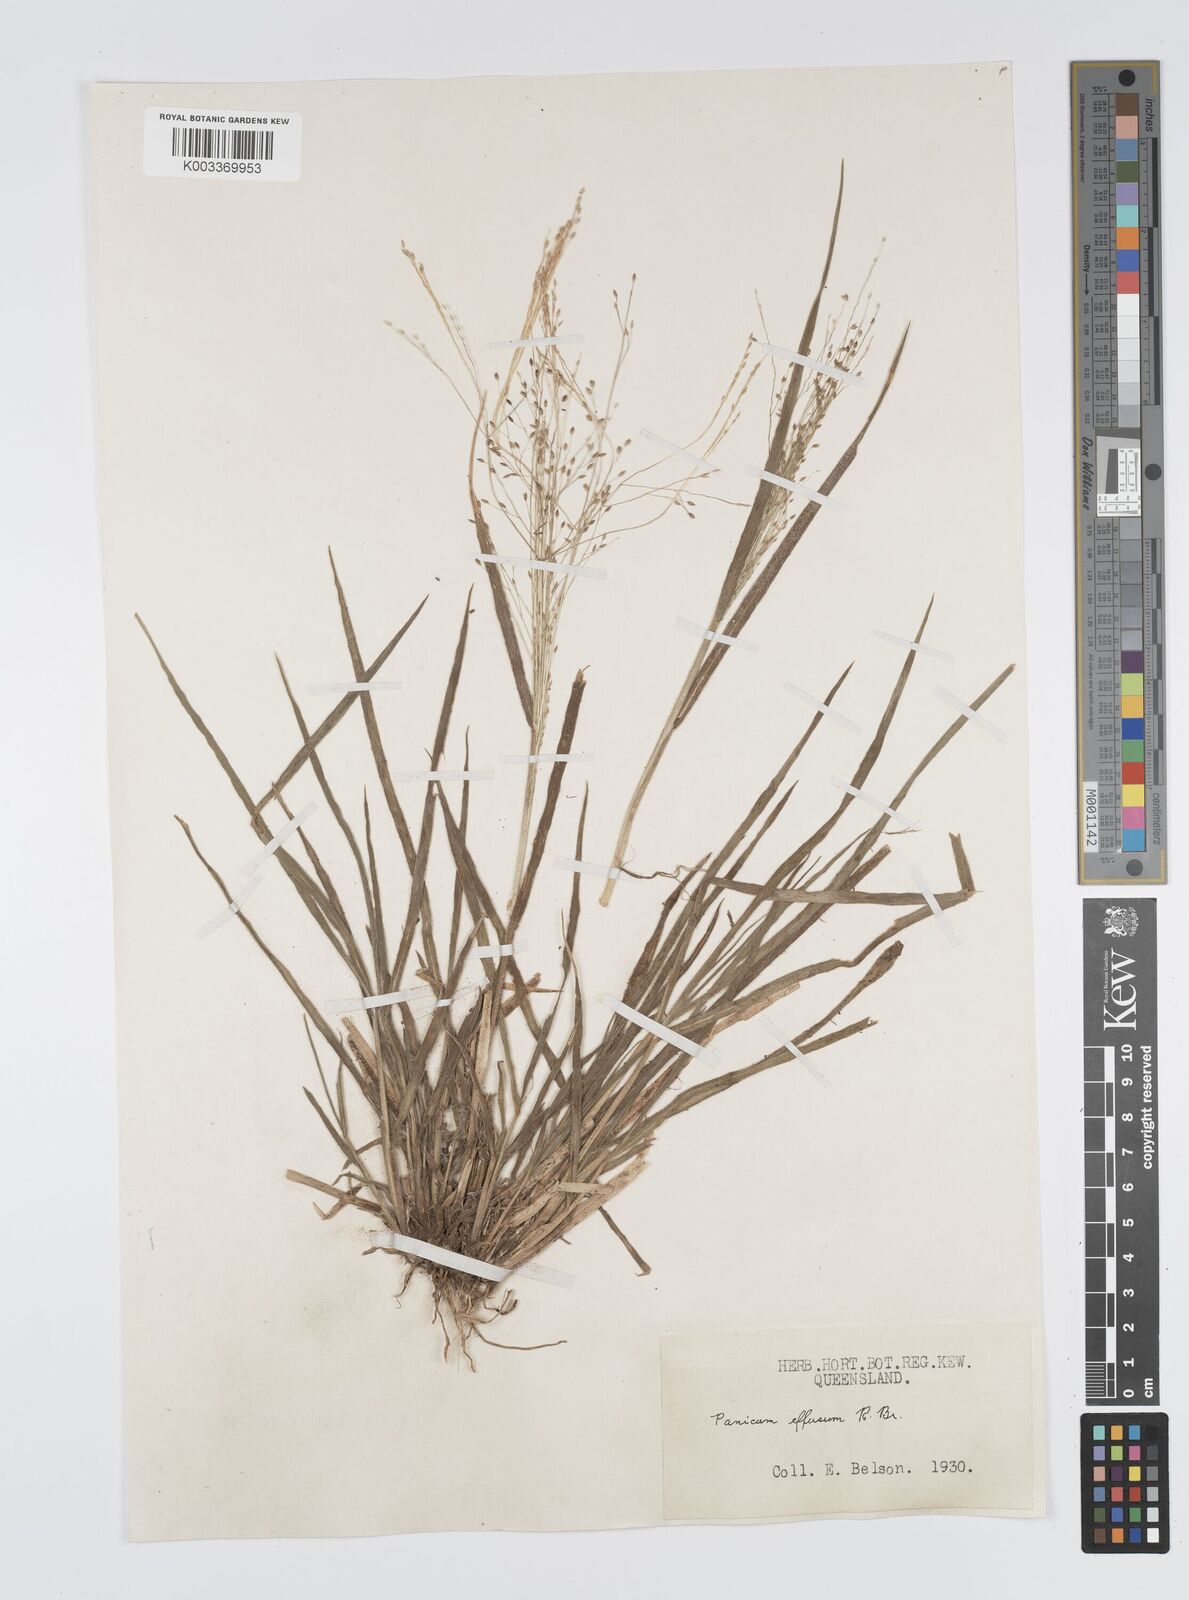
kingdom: Plantae
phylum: Tracheophyta
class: Liliopsida
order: Poales
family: Poaceae
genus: Panicum
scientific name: Panicum effusum
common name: Hairy panic grass
